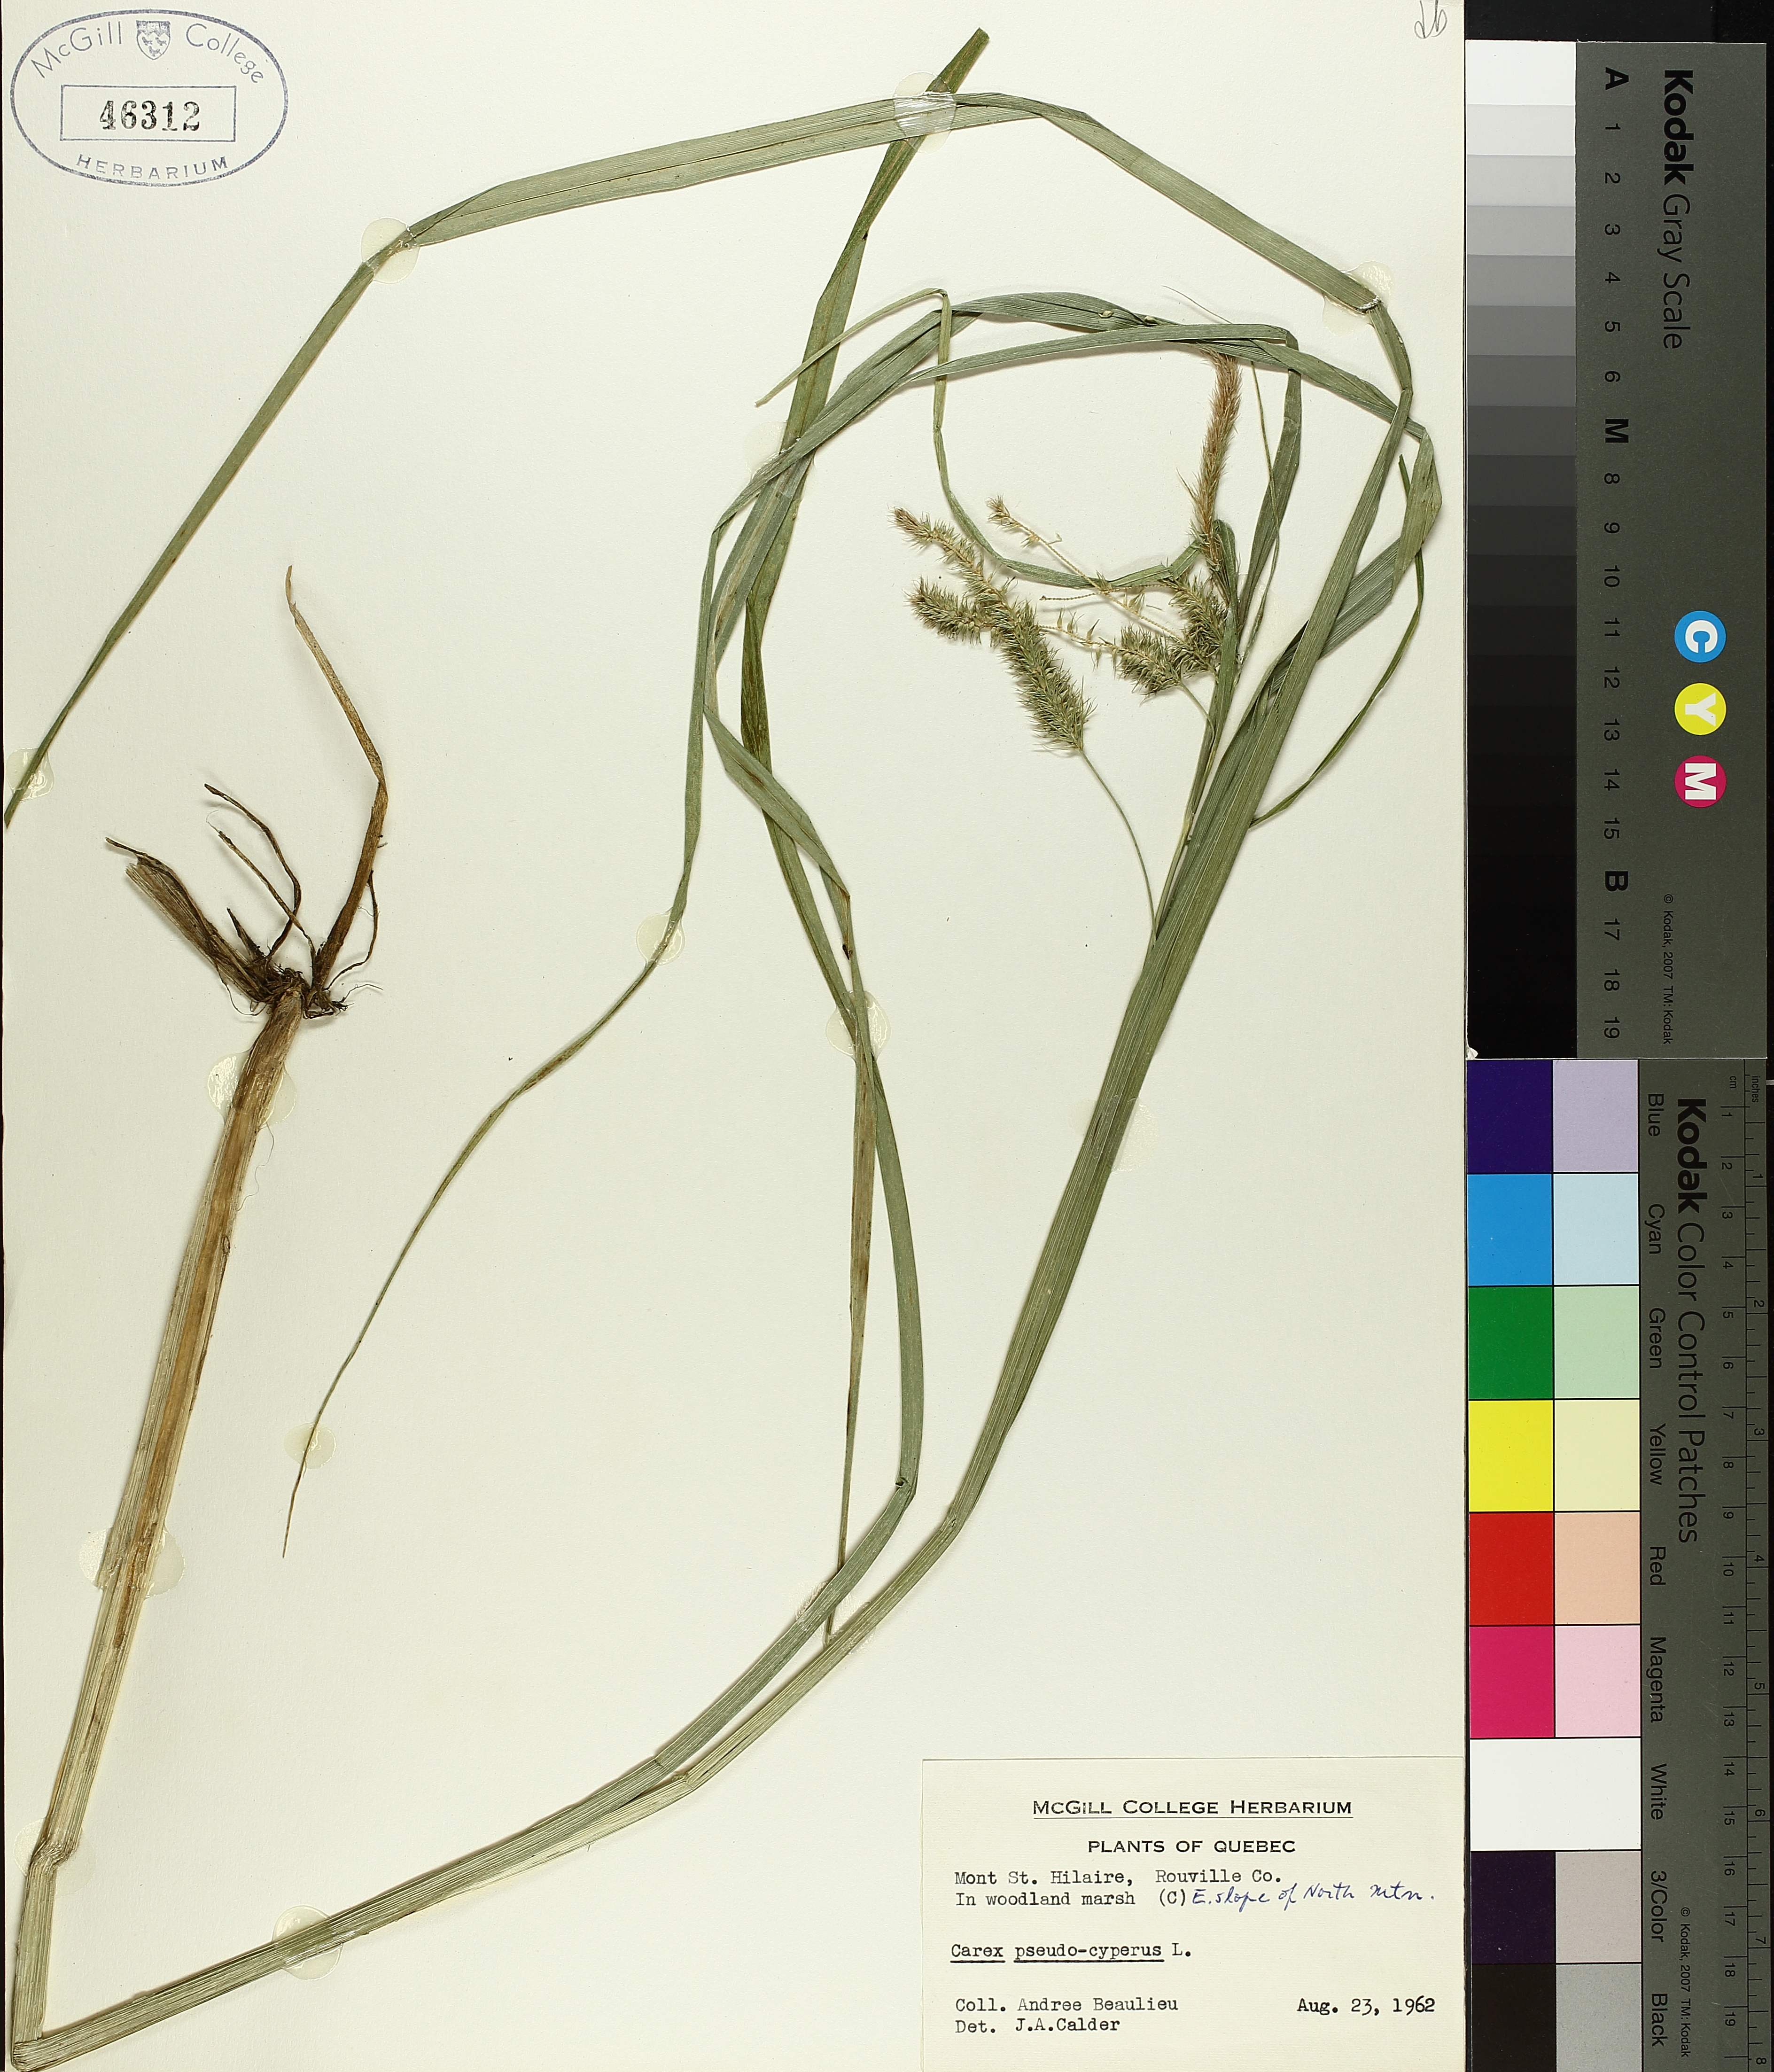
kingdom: Plantae
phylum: Tracheophyta
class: Liliopsida
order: Poales
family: Cyperaceae
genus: Carex
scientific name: Carex pseudocyperus
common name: Cyperus sedge
